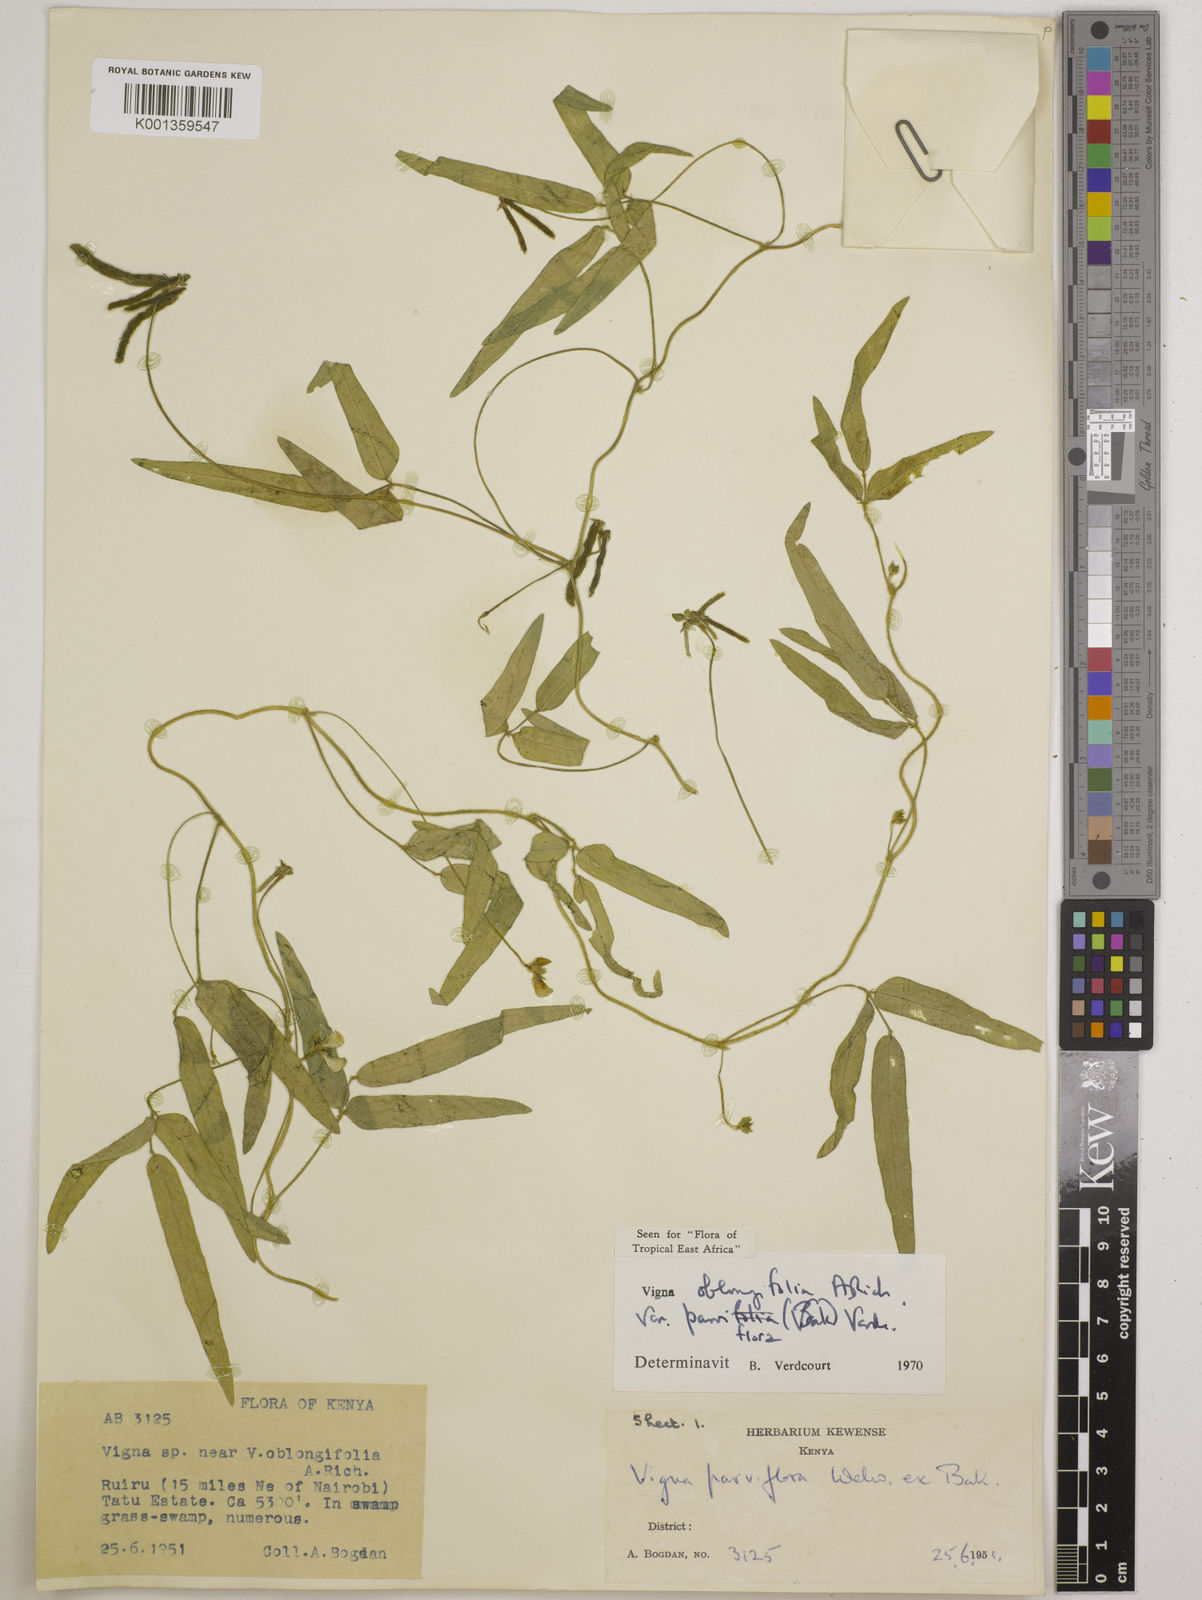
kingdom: Plantae
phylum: Tracheophyta
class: Magnoliopsida
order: Fabales
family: Fabaceae
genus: Vigna
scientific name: Vigna
